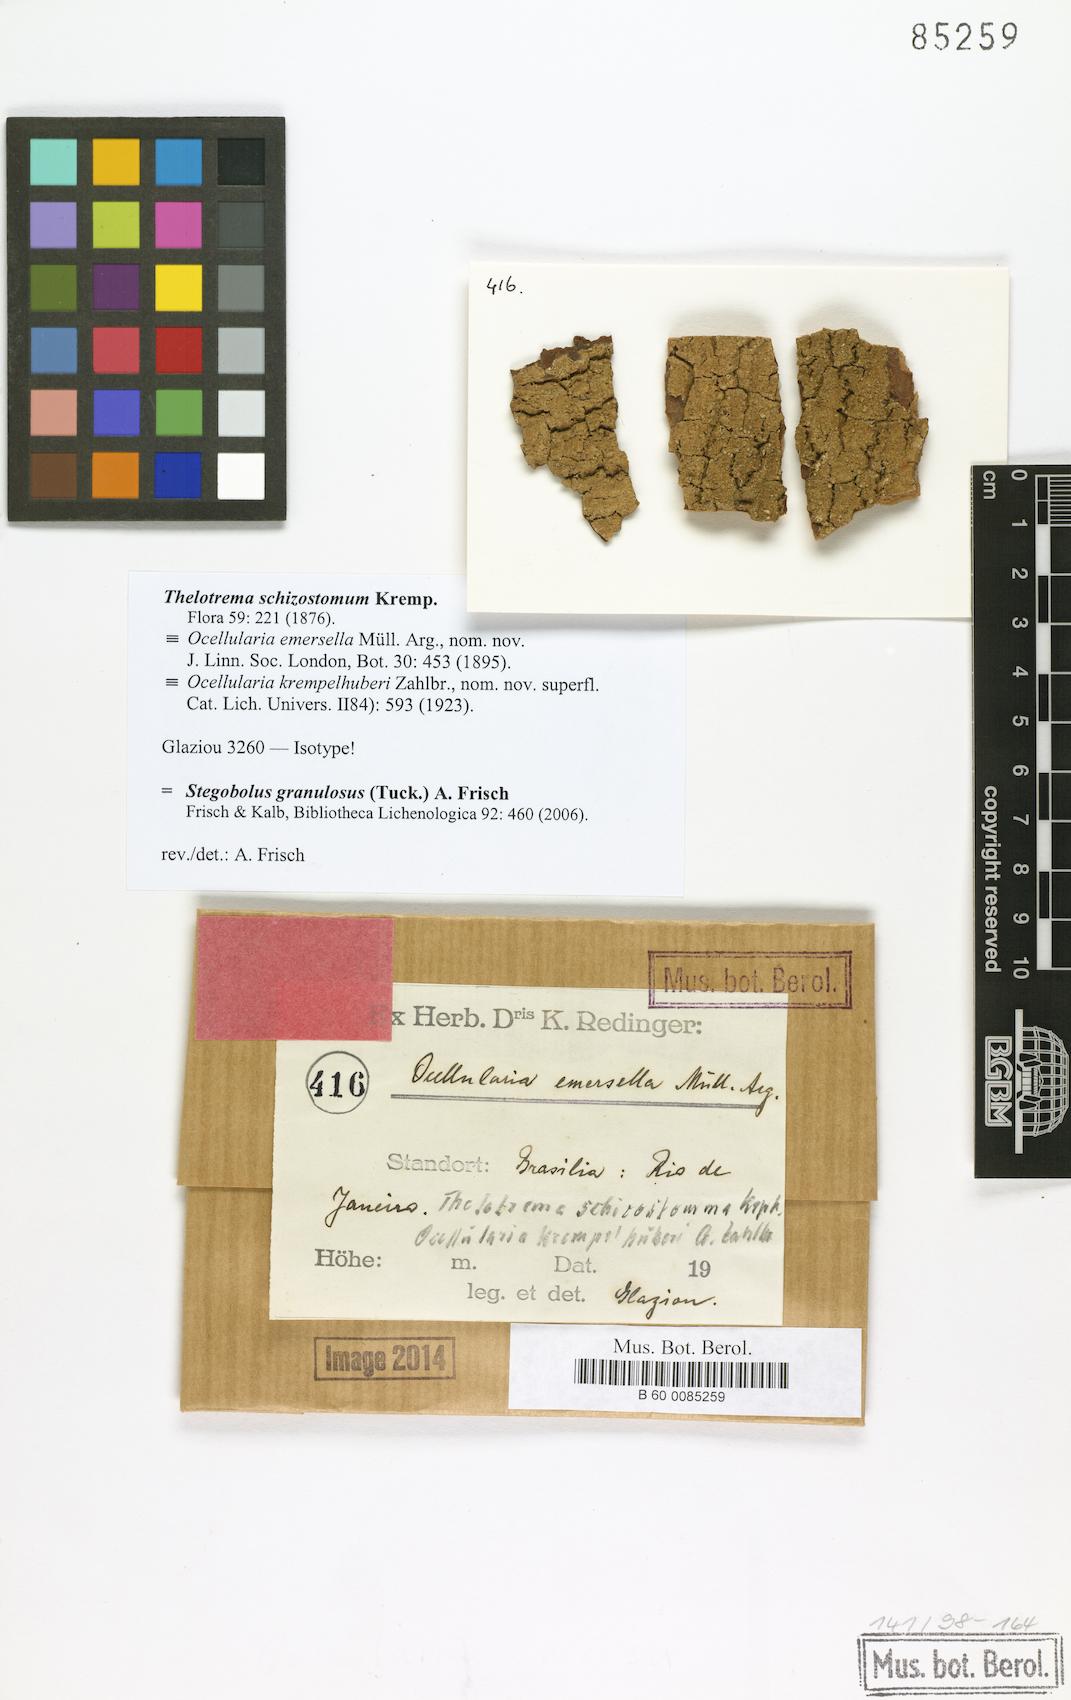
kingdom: Fungi
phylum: Ascomycota
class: Lecanoromycetes
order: Ostropales
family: Graphidaceae
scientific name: Graphidaceae
